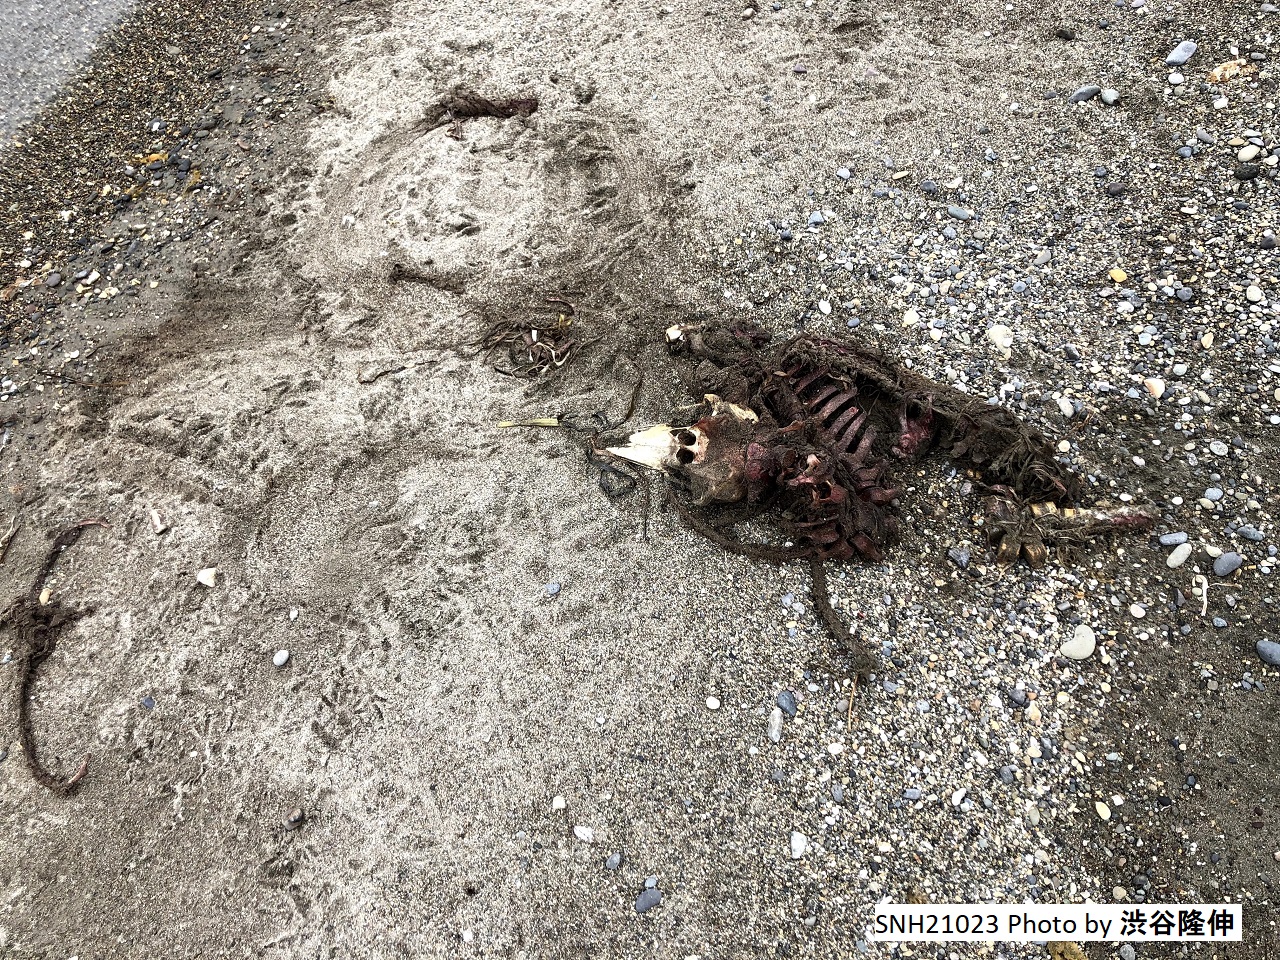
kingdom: Animalia
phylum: Chordata
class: Mammalia
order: Cetacea
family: Phocoenidae
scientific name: Phocoenidae
